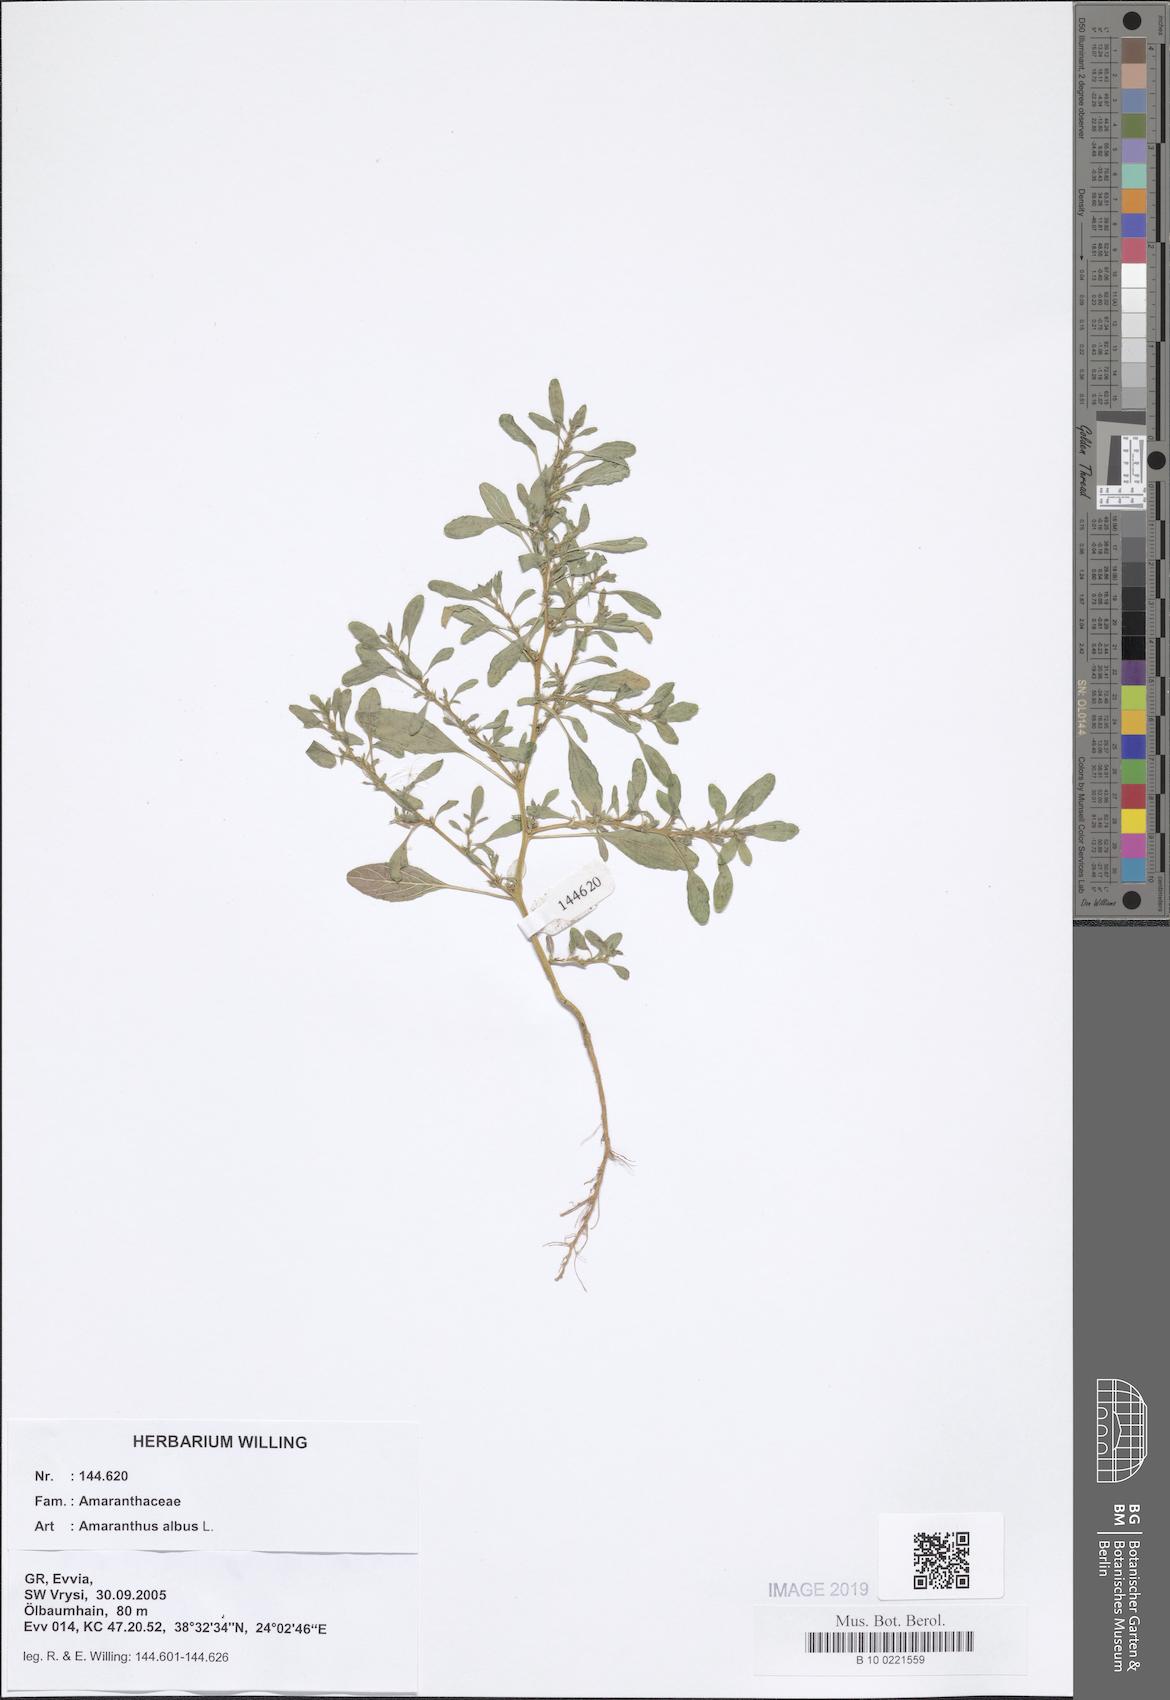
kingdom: Plantae
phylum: Tracheophyta
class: Magnoliopsida
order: Caryophyllales
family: Amaranthaceae
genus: Amaranthus
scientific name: Amaranthus albus
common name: White pigweed
